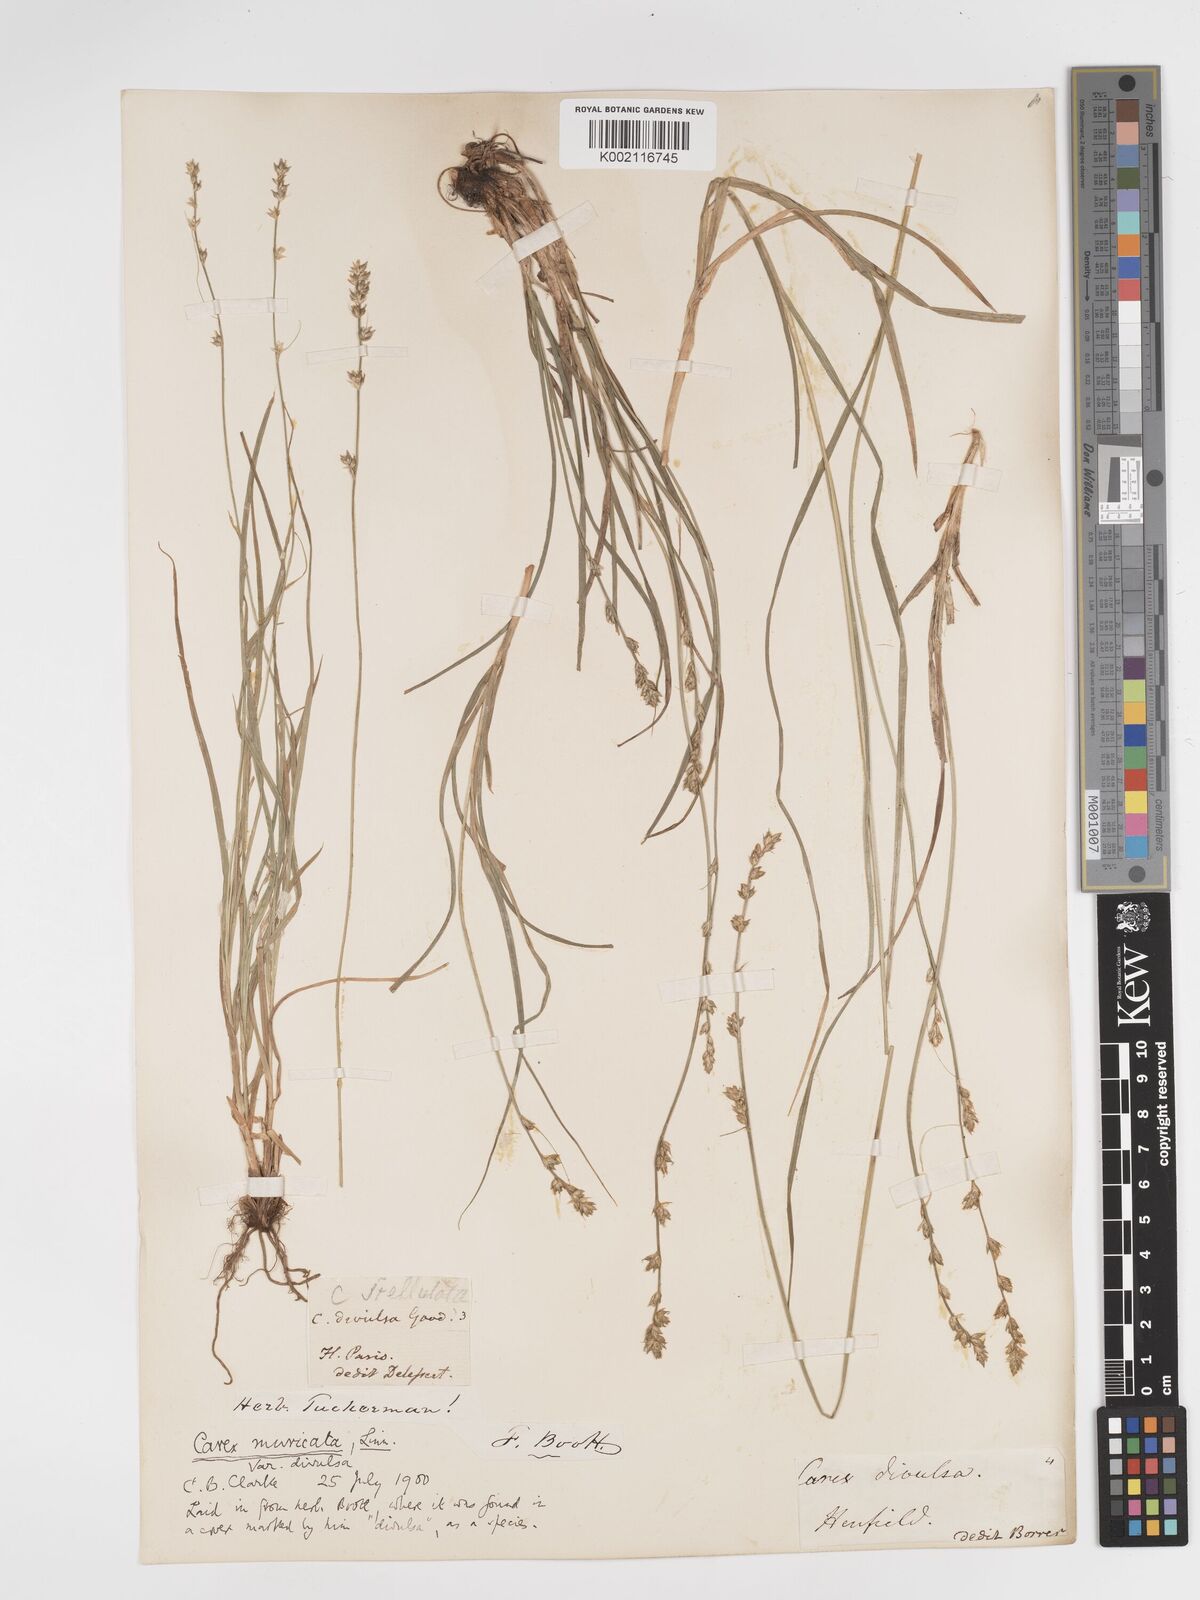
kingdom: Plantae
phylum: Tracheophyta
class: Liliopsida
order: Poales
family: Cyperaceae
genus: Carex
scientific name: Carex divulsa
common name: Grassland sedge
